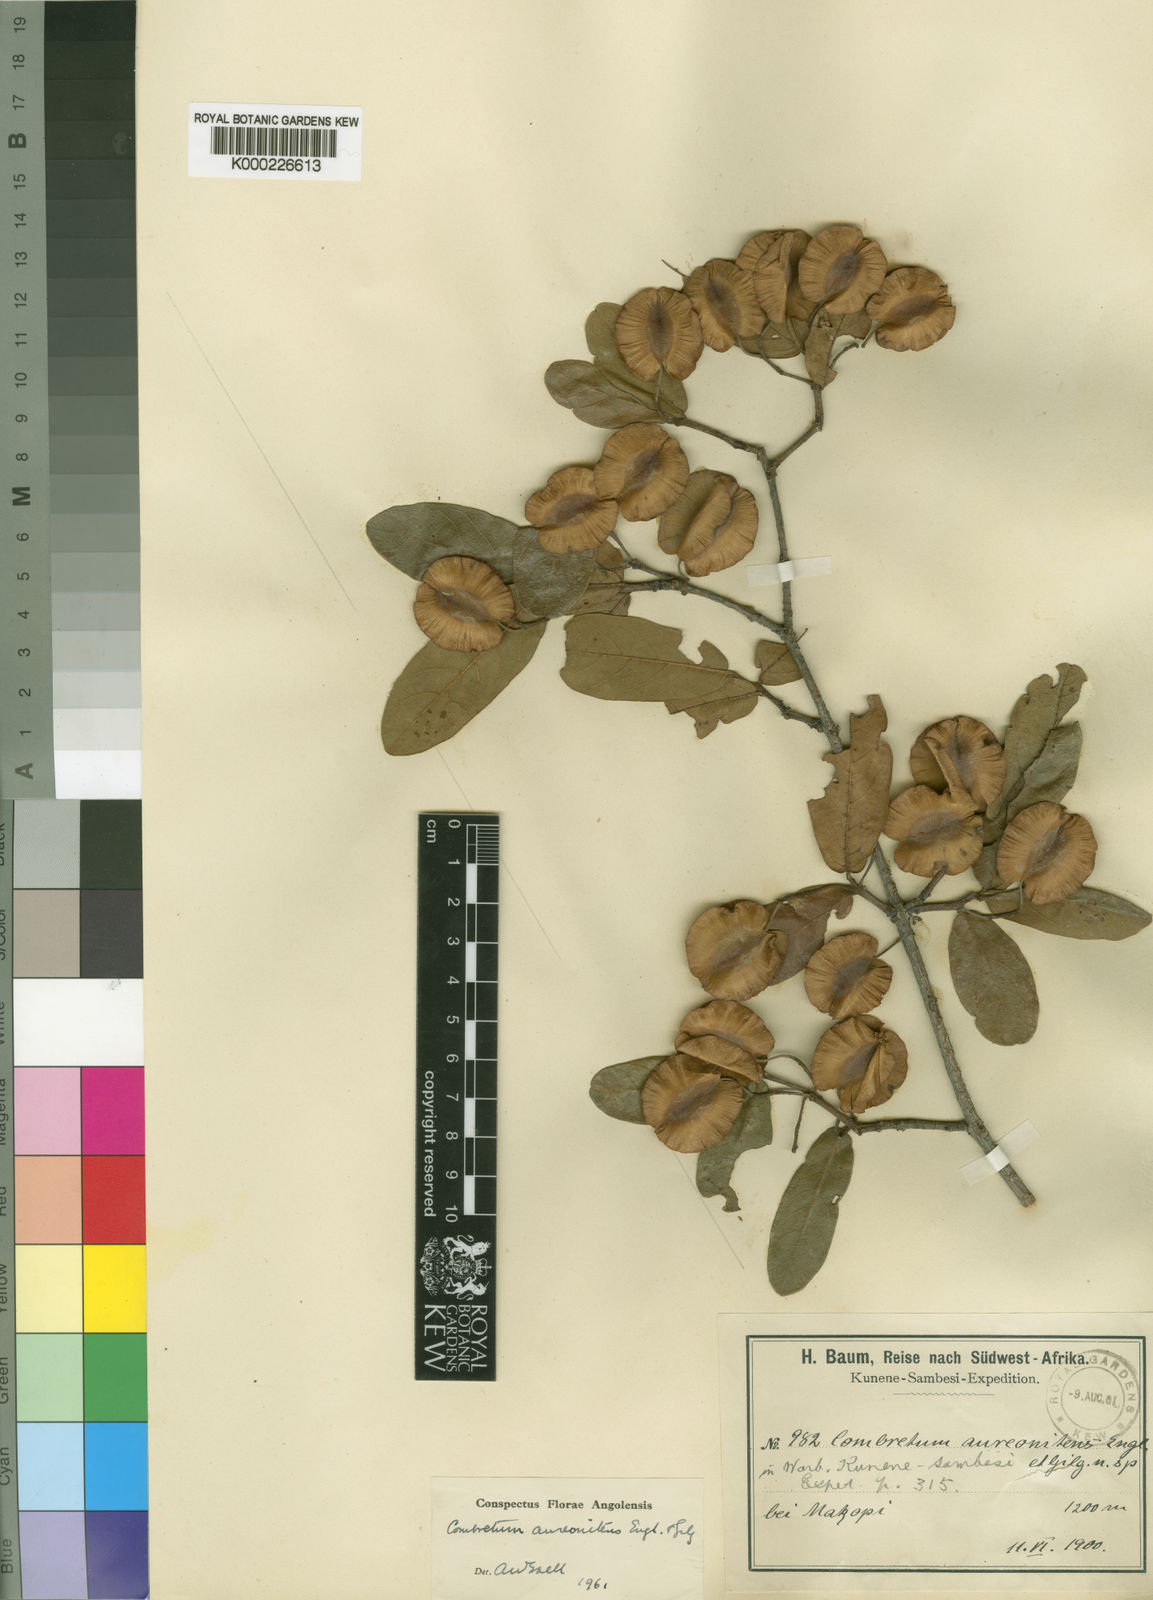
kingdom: Plantae
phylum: Tracheophyta
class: Magnoliopsida
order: Myrtales
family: Combretaceae
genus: Combretum
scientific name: Combretum aureonitens
